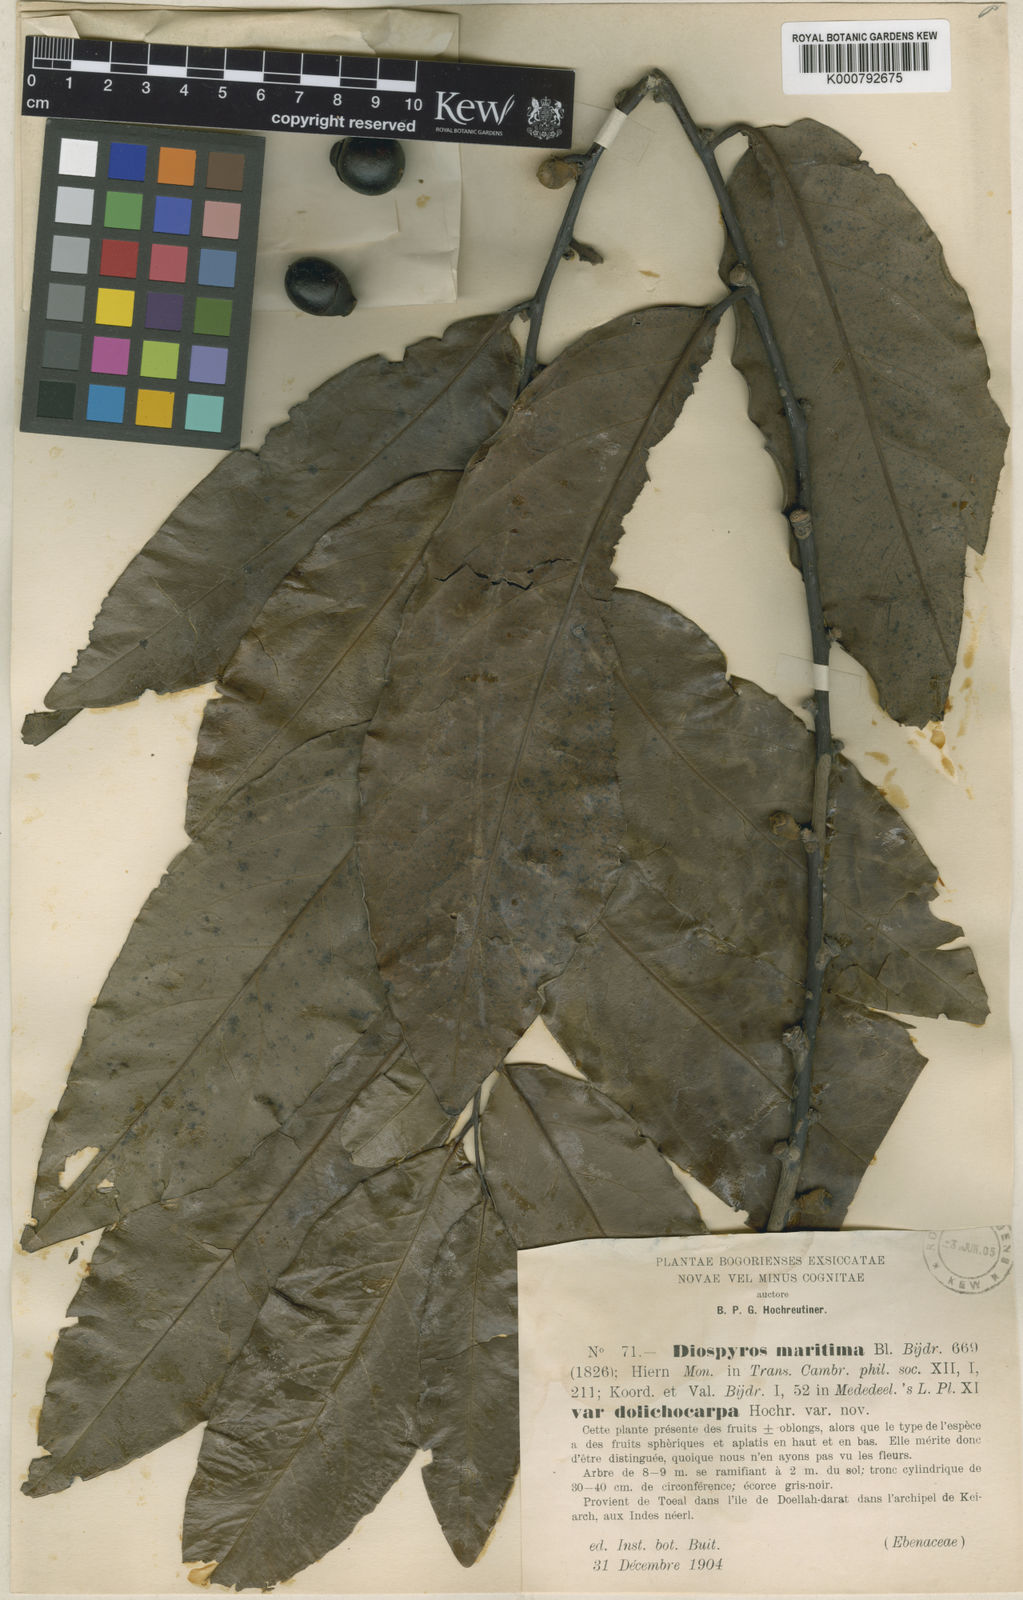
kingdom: Plantae
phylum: Tracheophyta
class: Magnoliopsida
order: Ericales
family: Ebenaceae
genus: Diospyros
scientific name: Diospyros maritima
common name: Malaysian persimmon
